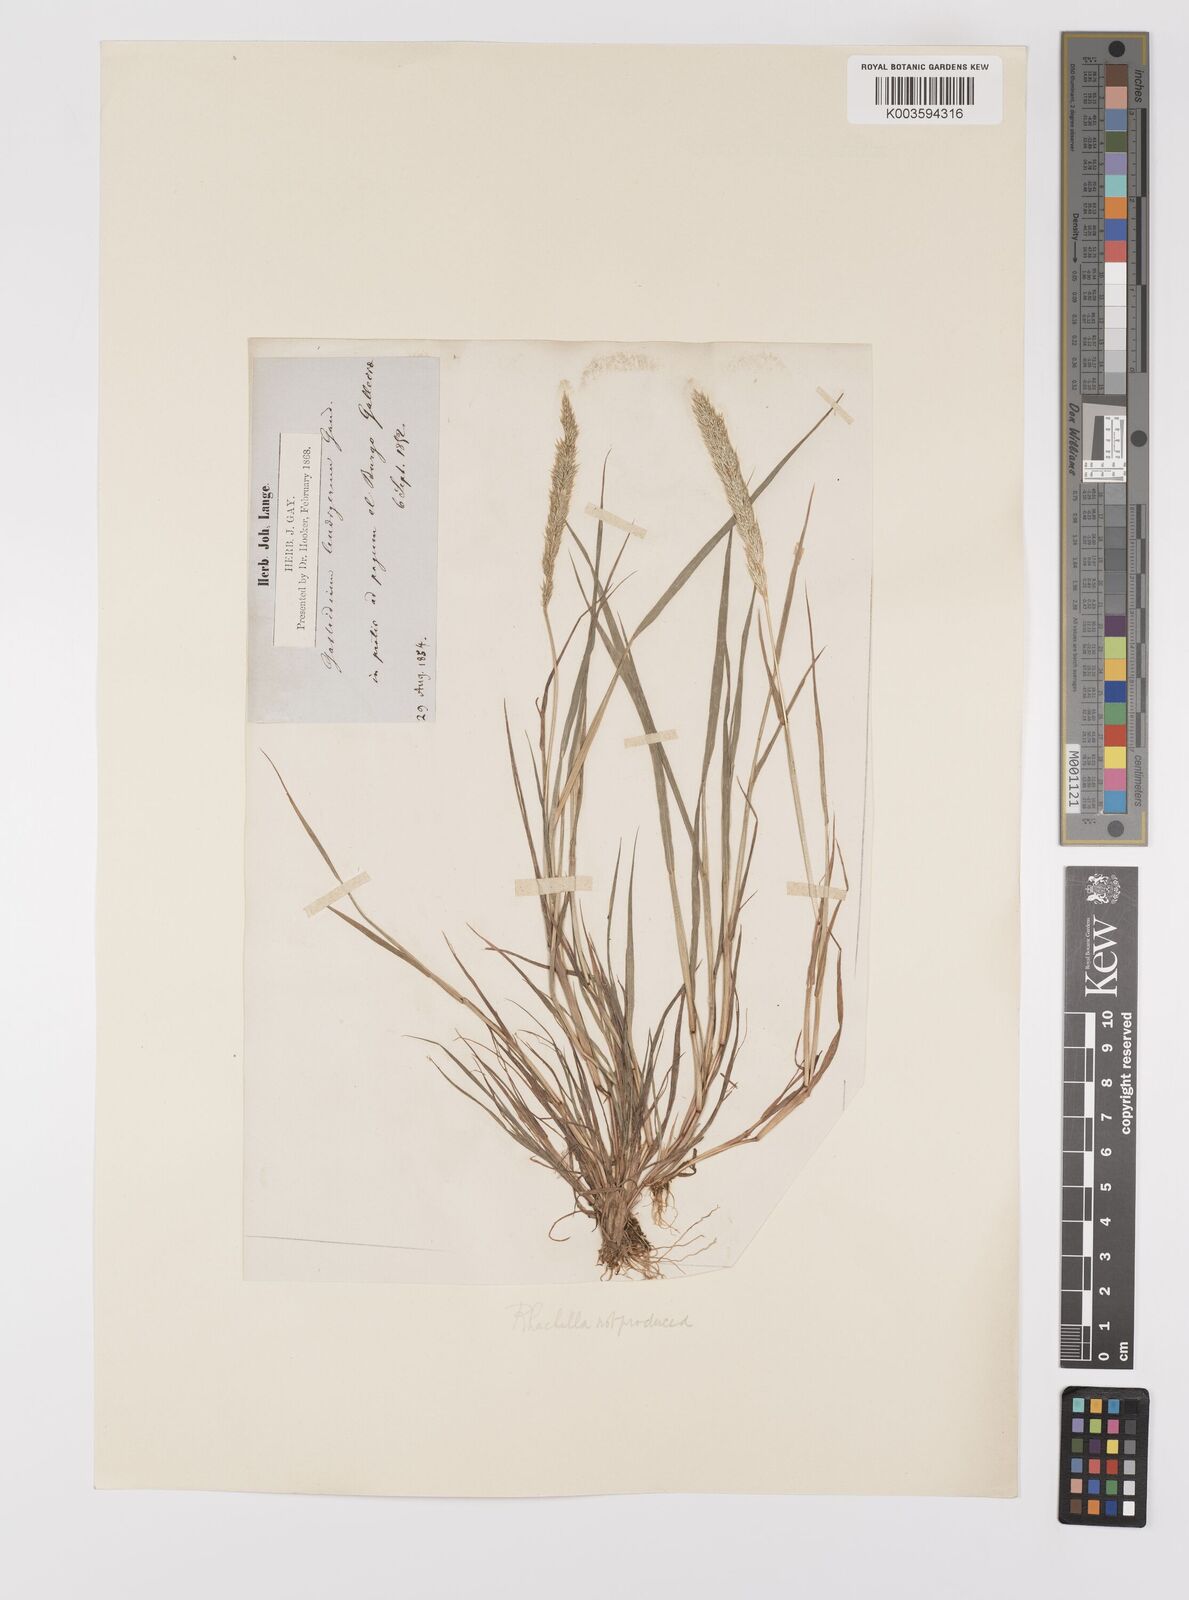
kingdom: Plantae
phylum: Tracheophyta
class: Liliopsida
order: Poales
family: Poaceae
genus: Gastridium
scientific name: Gastridium ventricosum
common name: Nit-grass
